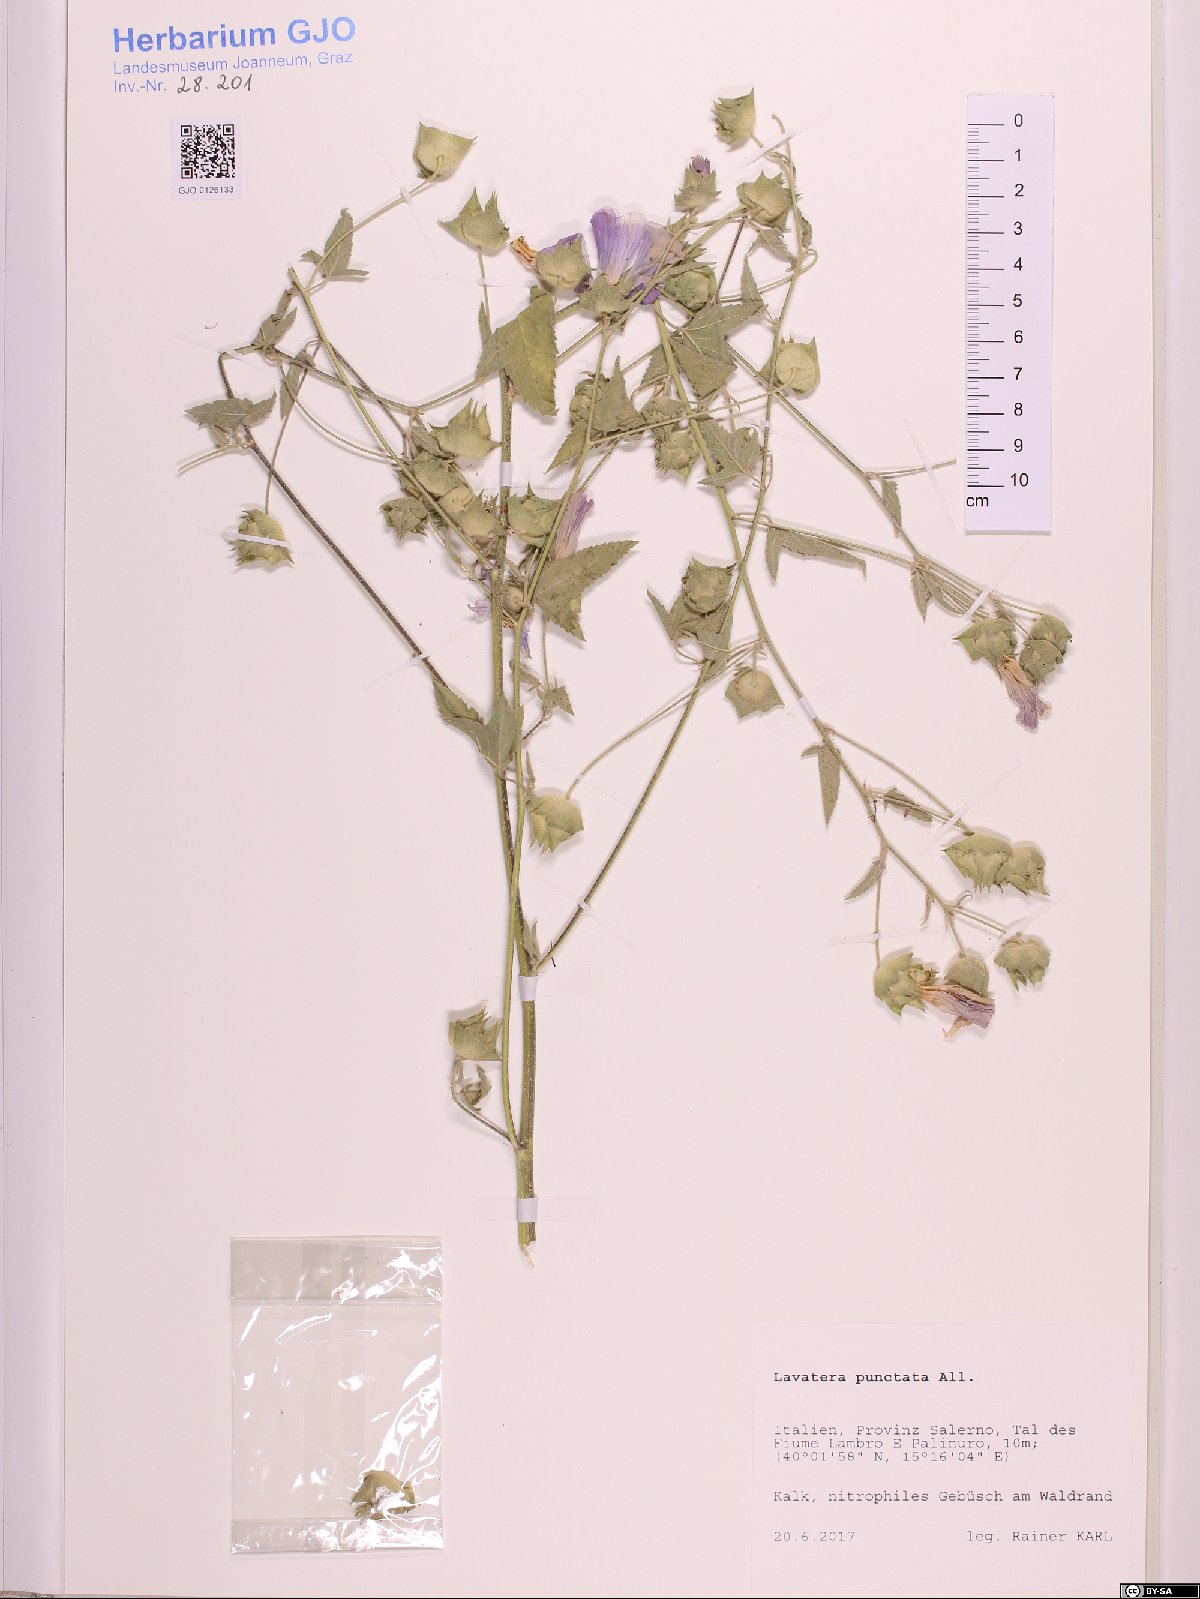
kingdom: Plantae
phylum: Tracheophyta
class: Magnoliopsida
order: Malvales
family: Malvaceae
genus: Malva
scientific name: Malva punctata
